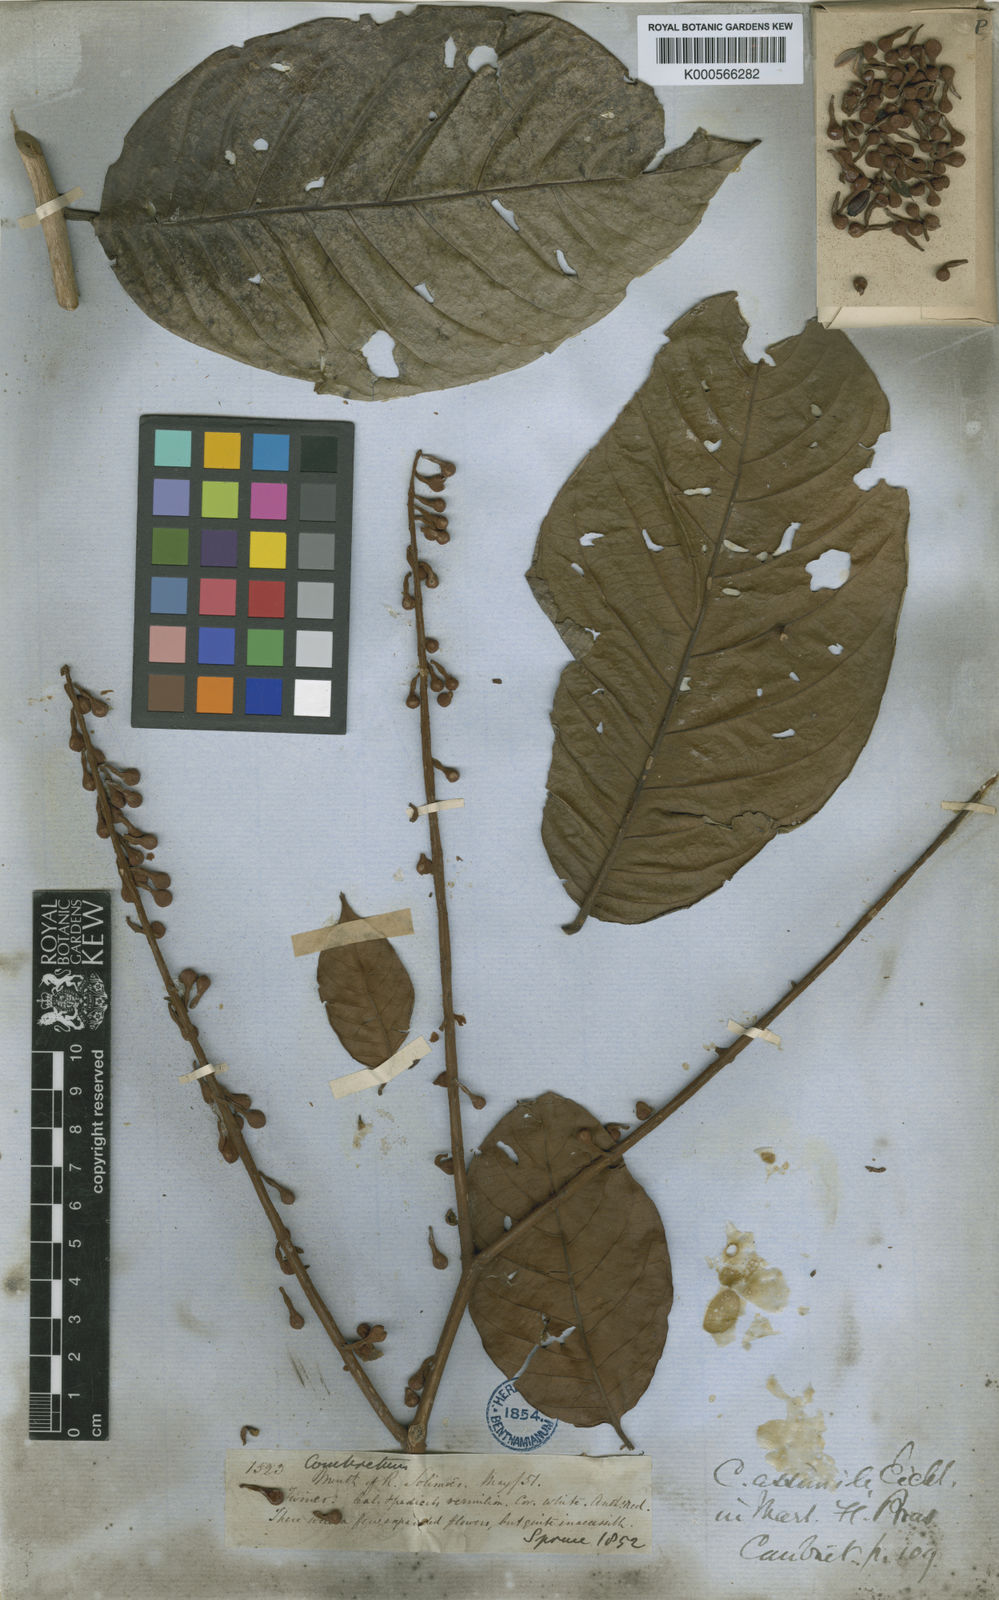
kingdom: Plantae
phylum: Tracheophyta
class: Magnoliopsida
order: Myrtales
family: Combretaceae
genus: Combretum
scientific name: Combretum assimile
